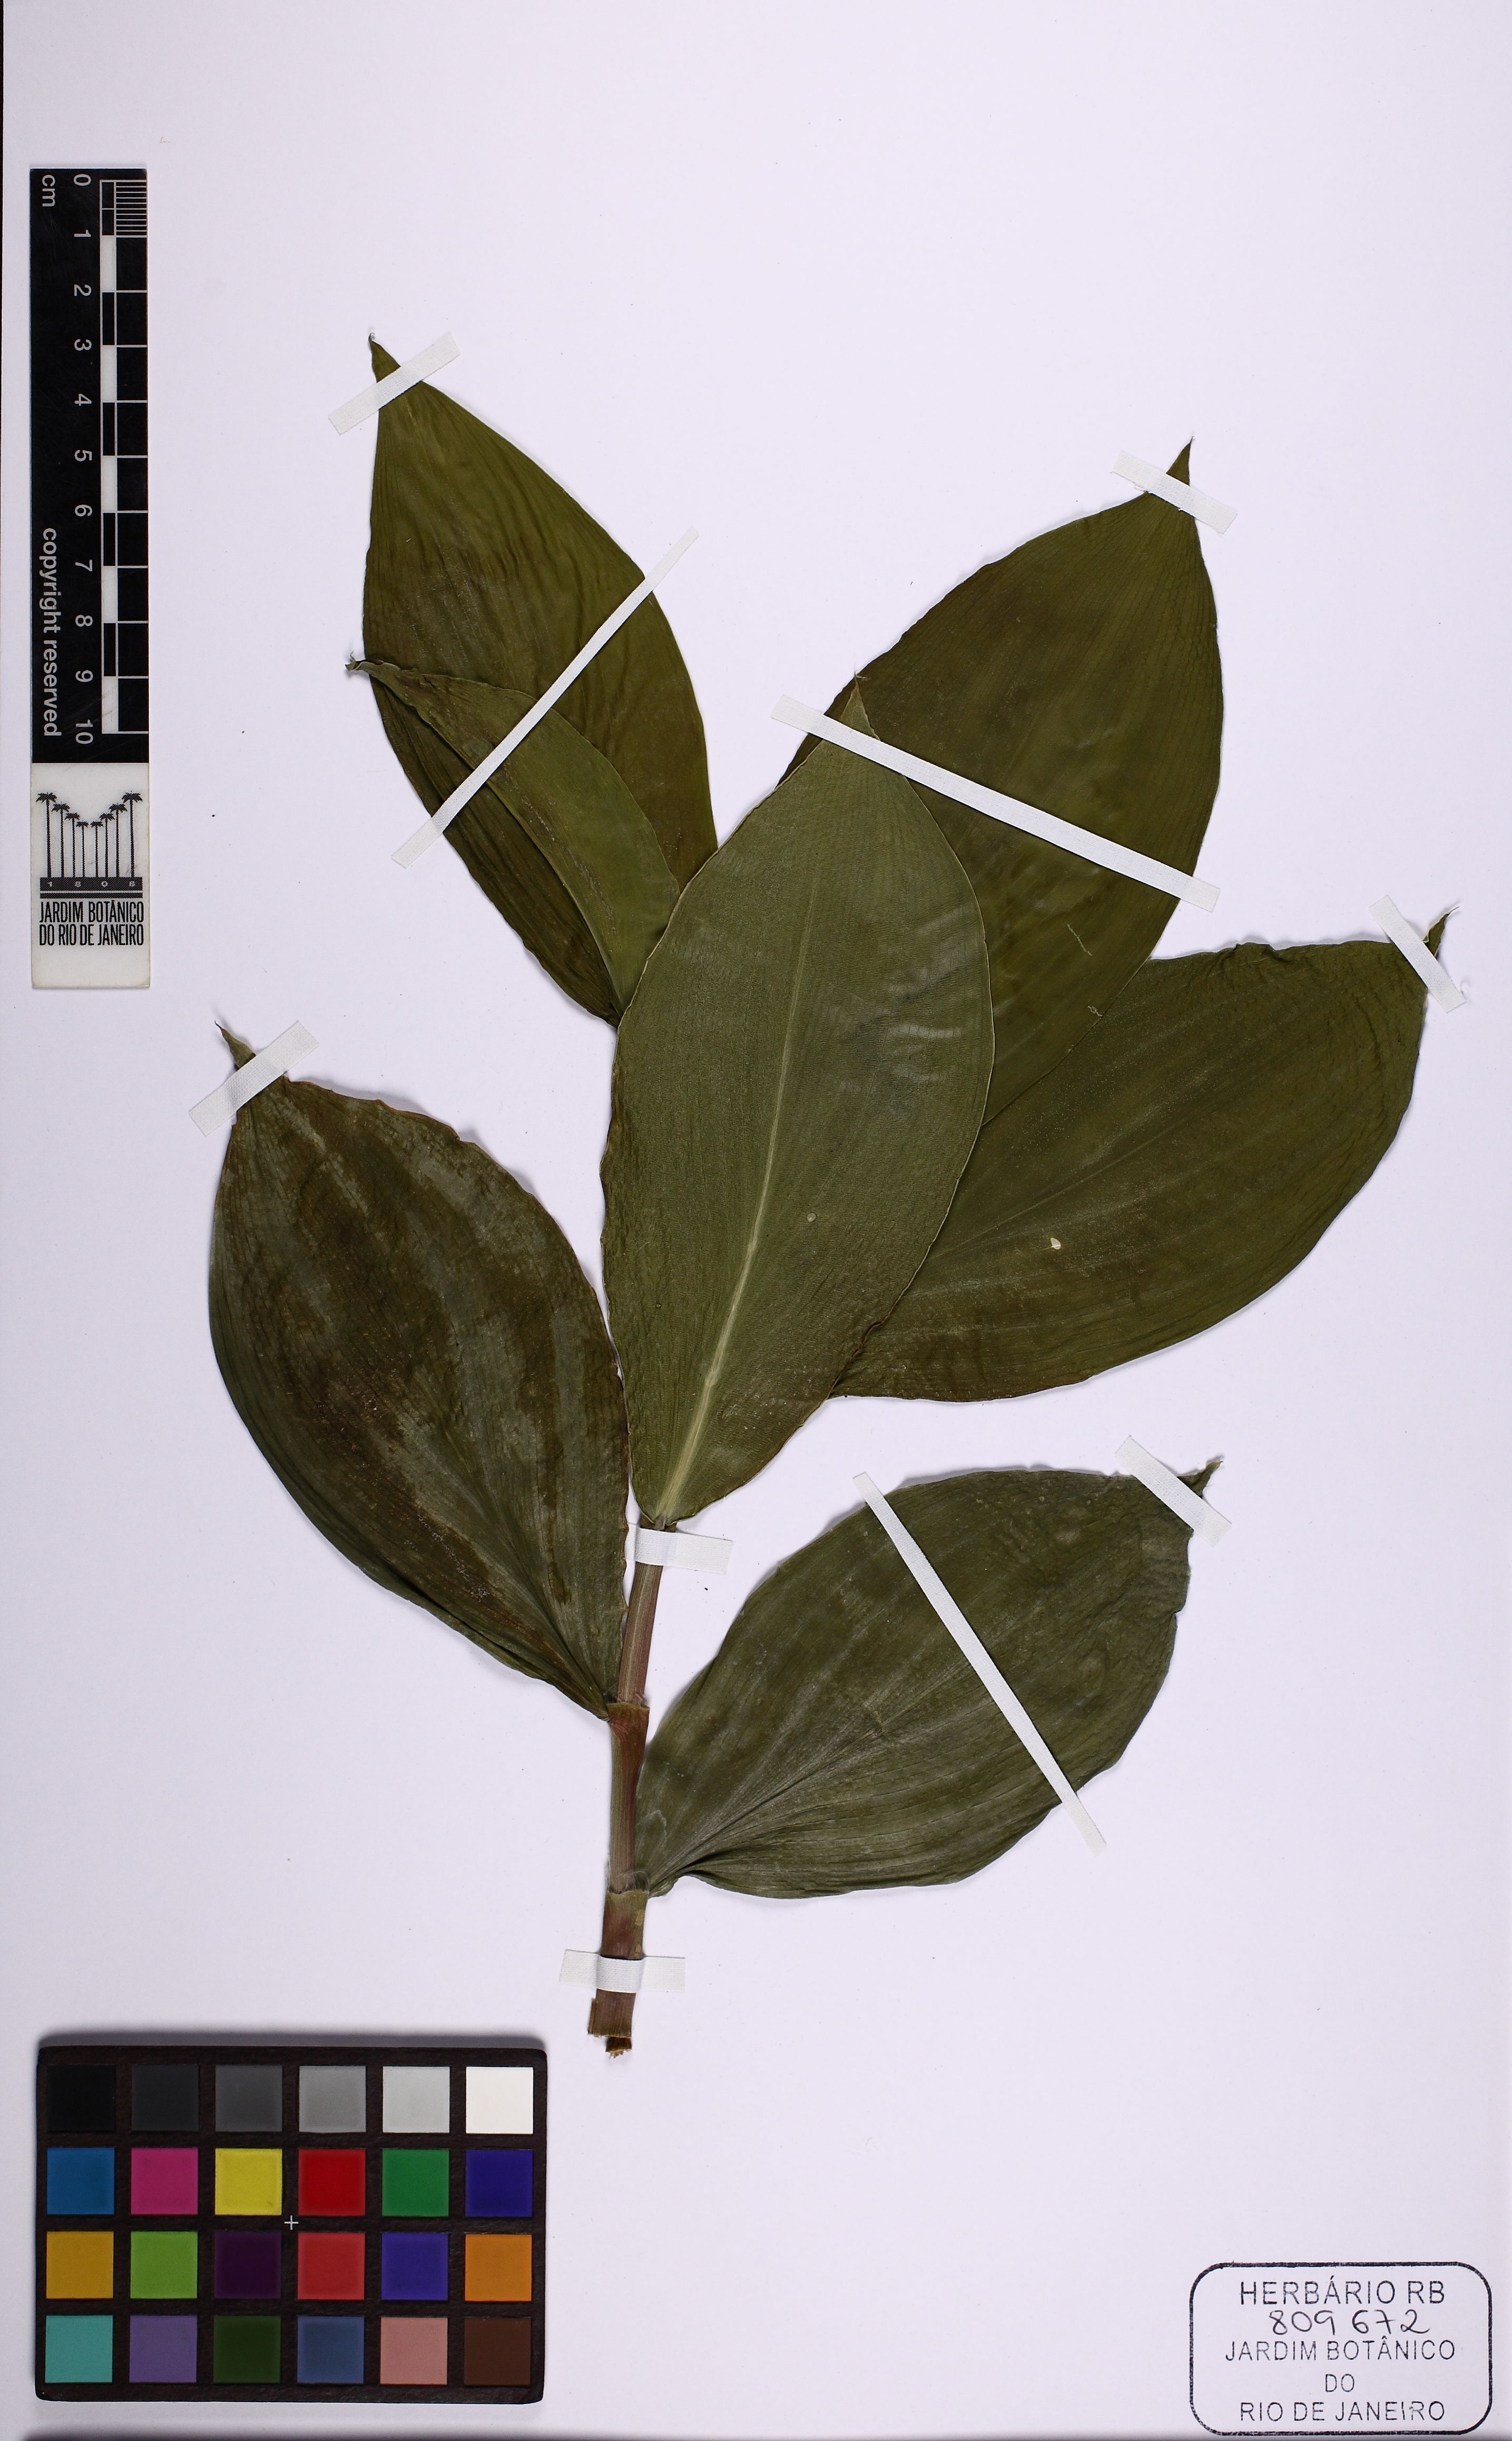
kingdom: Plantae
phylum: Tracheophyta
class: Liliopsida
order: Zingiberales
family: Costaceae
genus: Costus
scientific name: Costus spiralis
